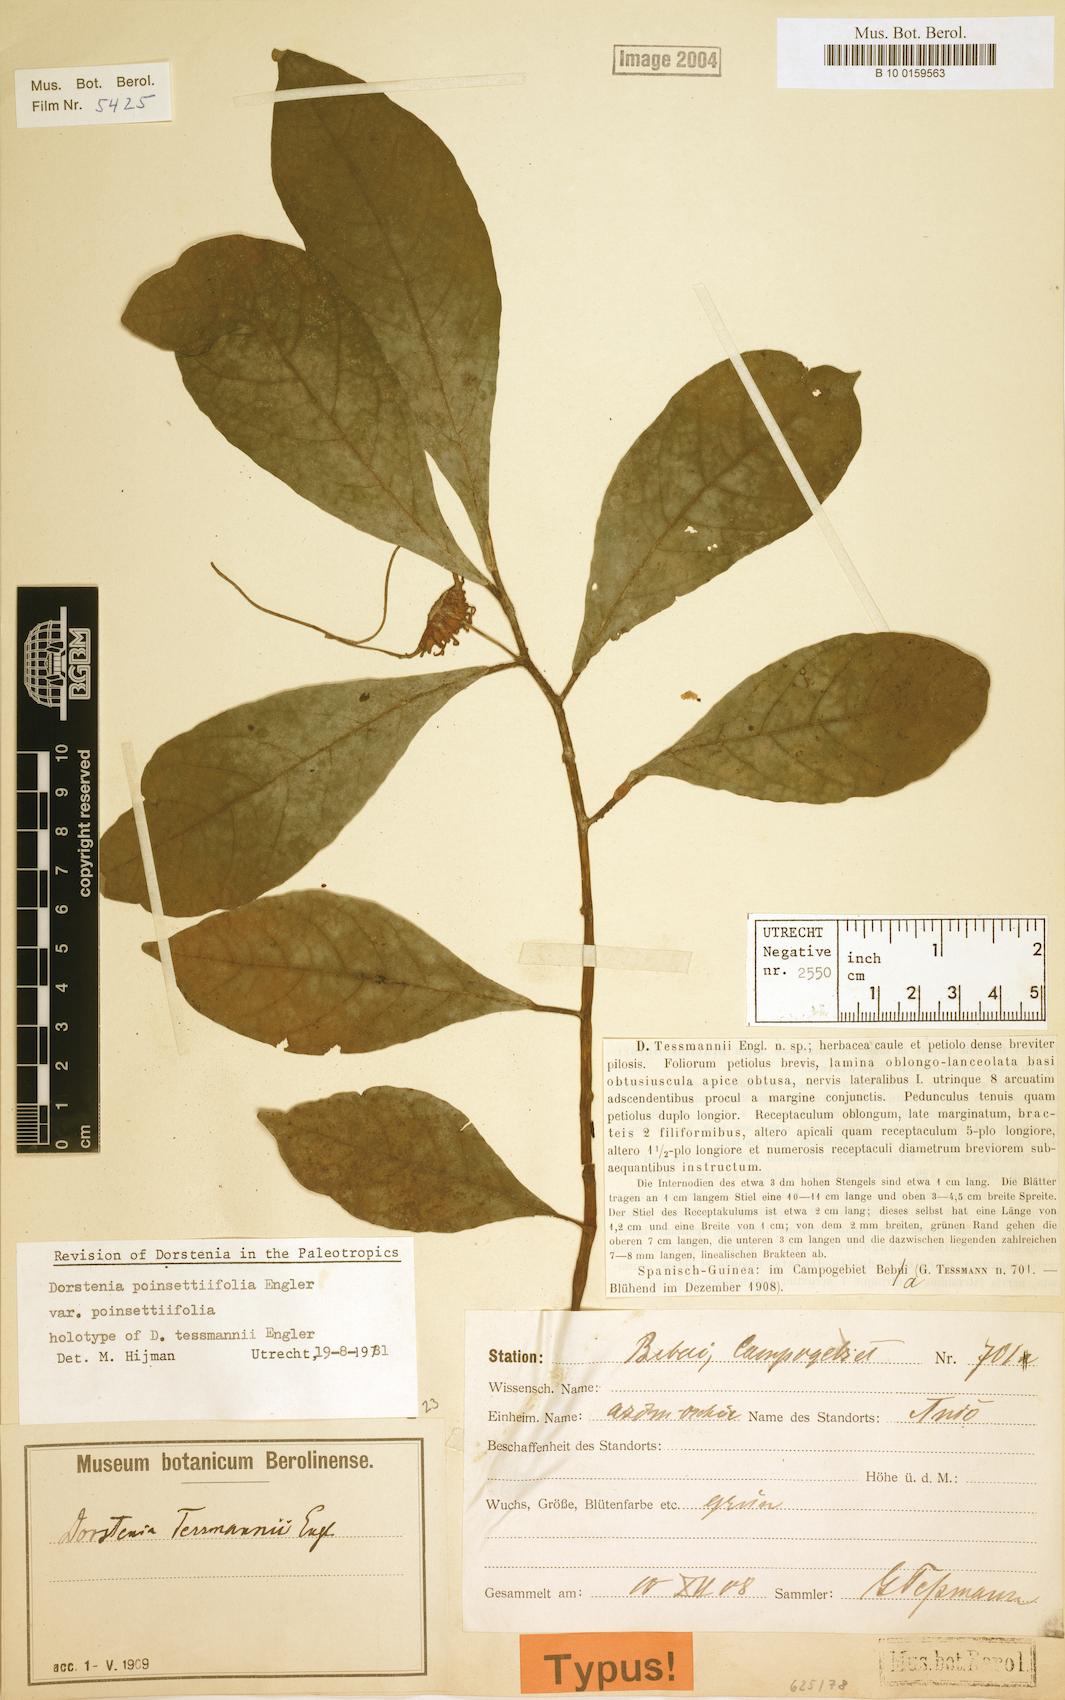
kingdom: Plantae
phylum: Tracheophyta
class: Magnoliopsida
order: Rosales
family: Moraceae
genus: Dorstenia
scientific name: Dorstenia poinsettifolia
